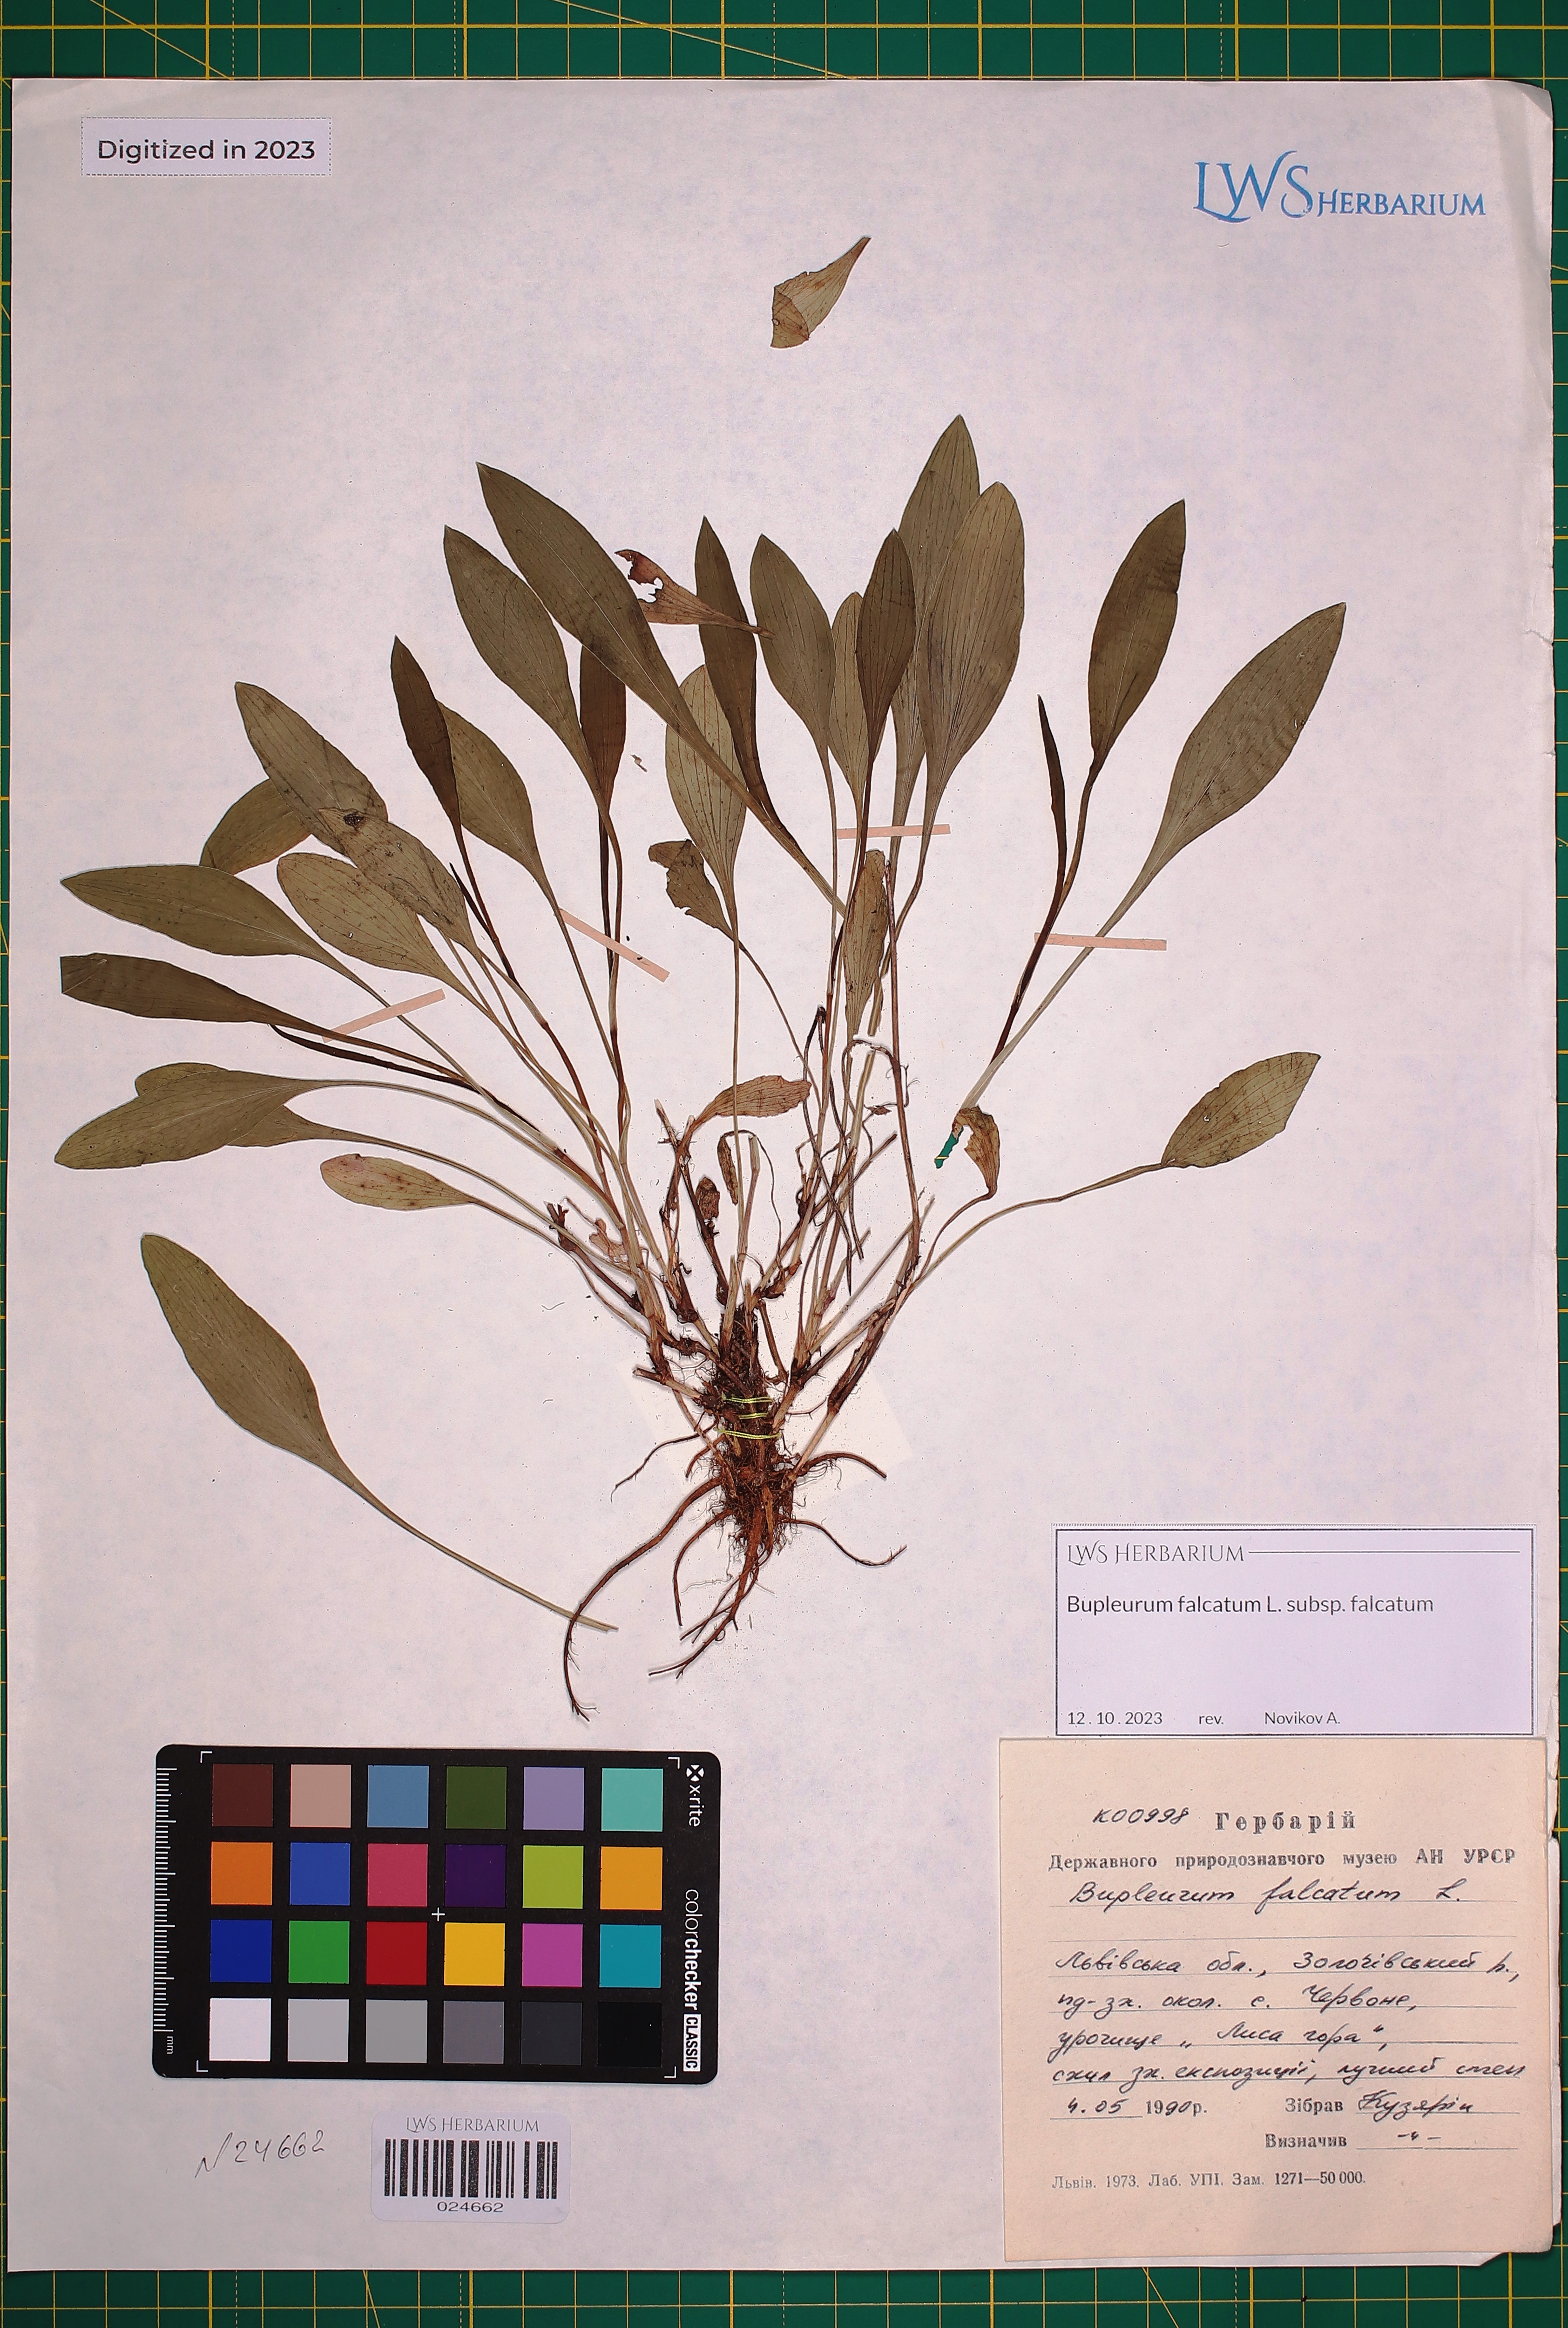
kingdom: Plantae
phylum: Tracheophyta
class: Magnoliopsida
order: Apiales
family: Apiaceae
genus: Bupleurum
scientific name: Bupleurum falcatum
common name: Sickle-leaved hare's-ear
